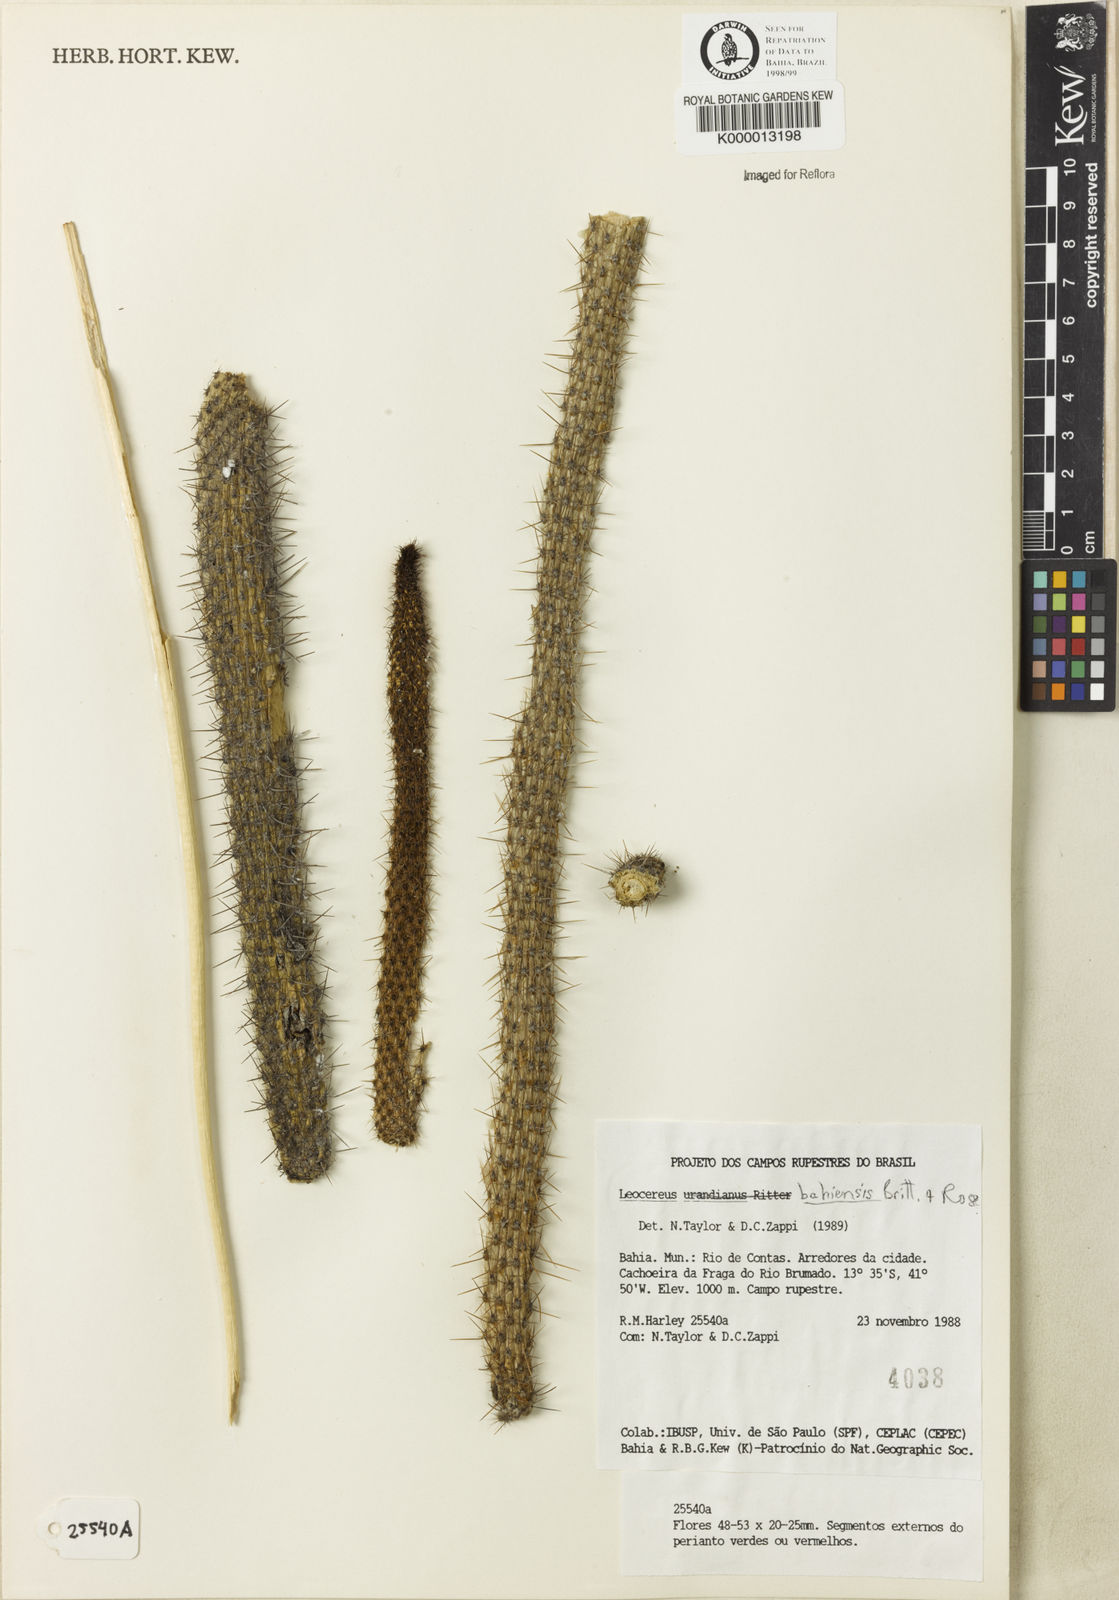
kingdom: Plantae
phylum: Tracheophyta
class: Magnoliopsida
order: Caryophyllales
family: Cactaceae
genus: Leocereus
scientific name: Leocereus bahiensis
